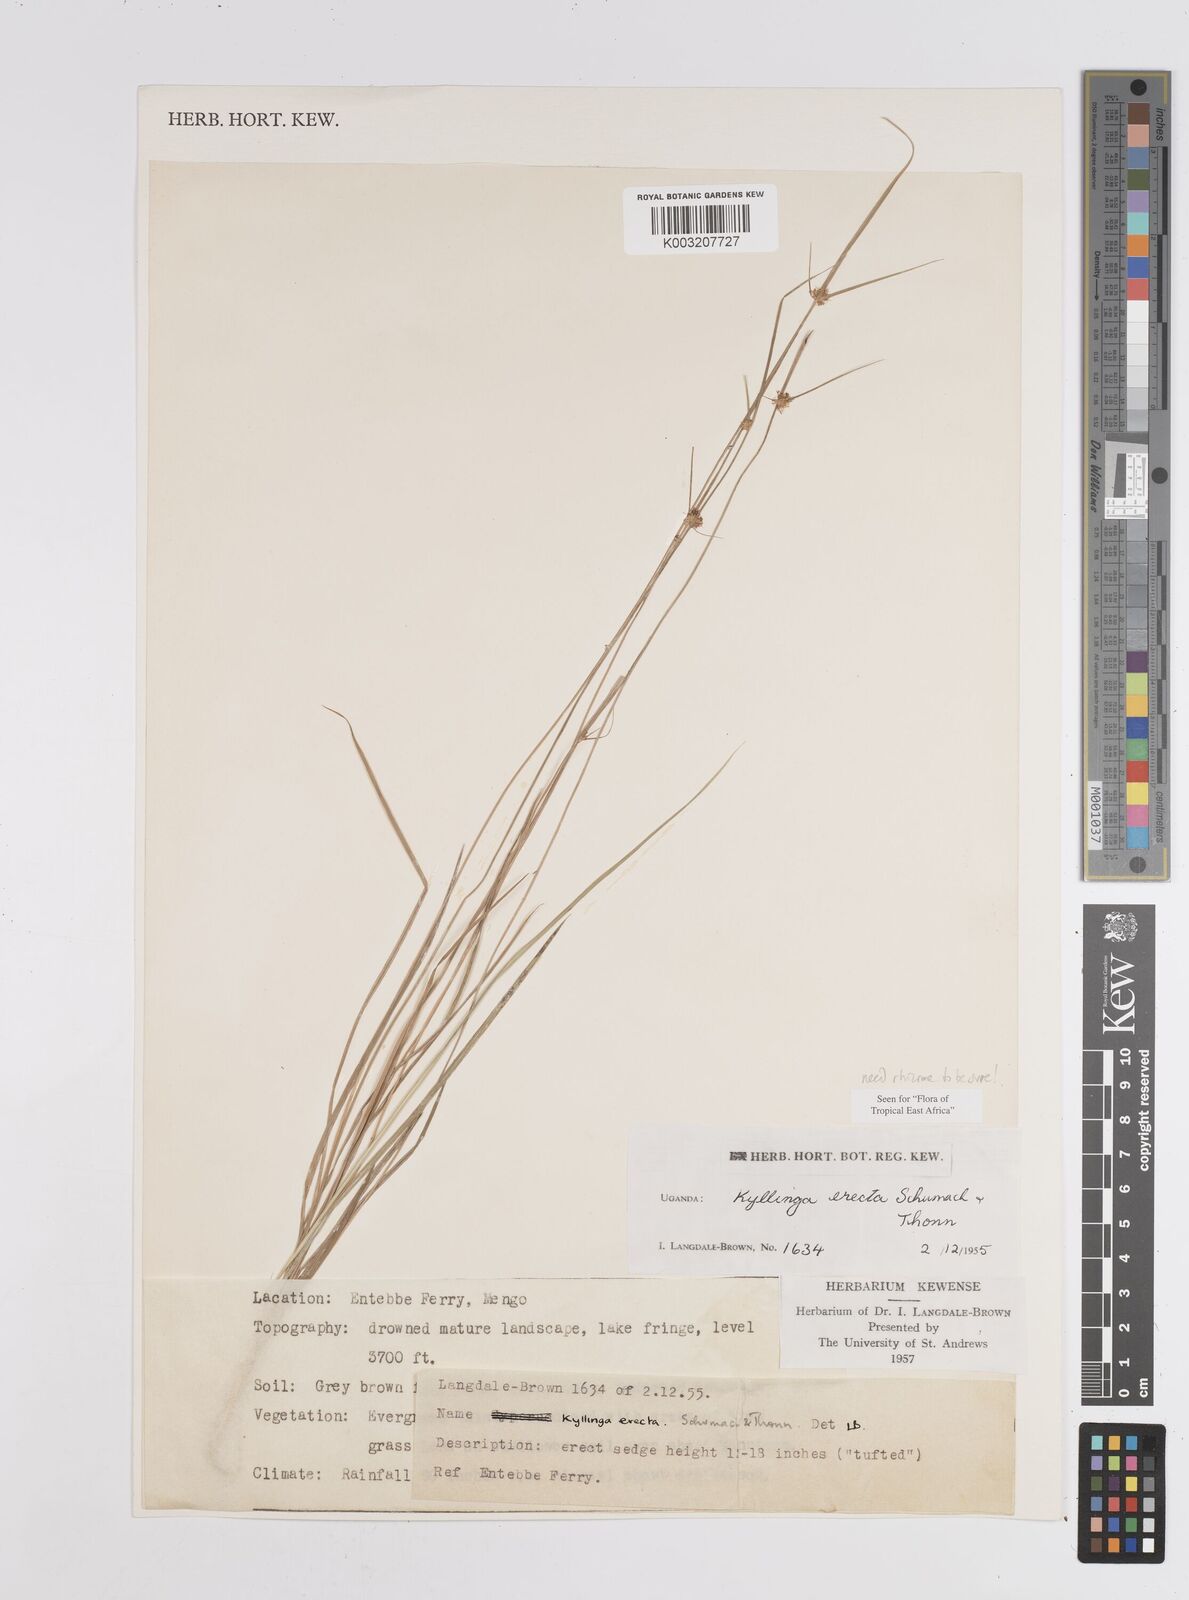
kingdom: Plantae
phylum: Tracheophyta
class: Liliopsida
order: Poales
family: Cyperaceae
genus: Cyperus
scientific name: Cyperus erectus
